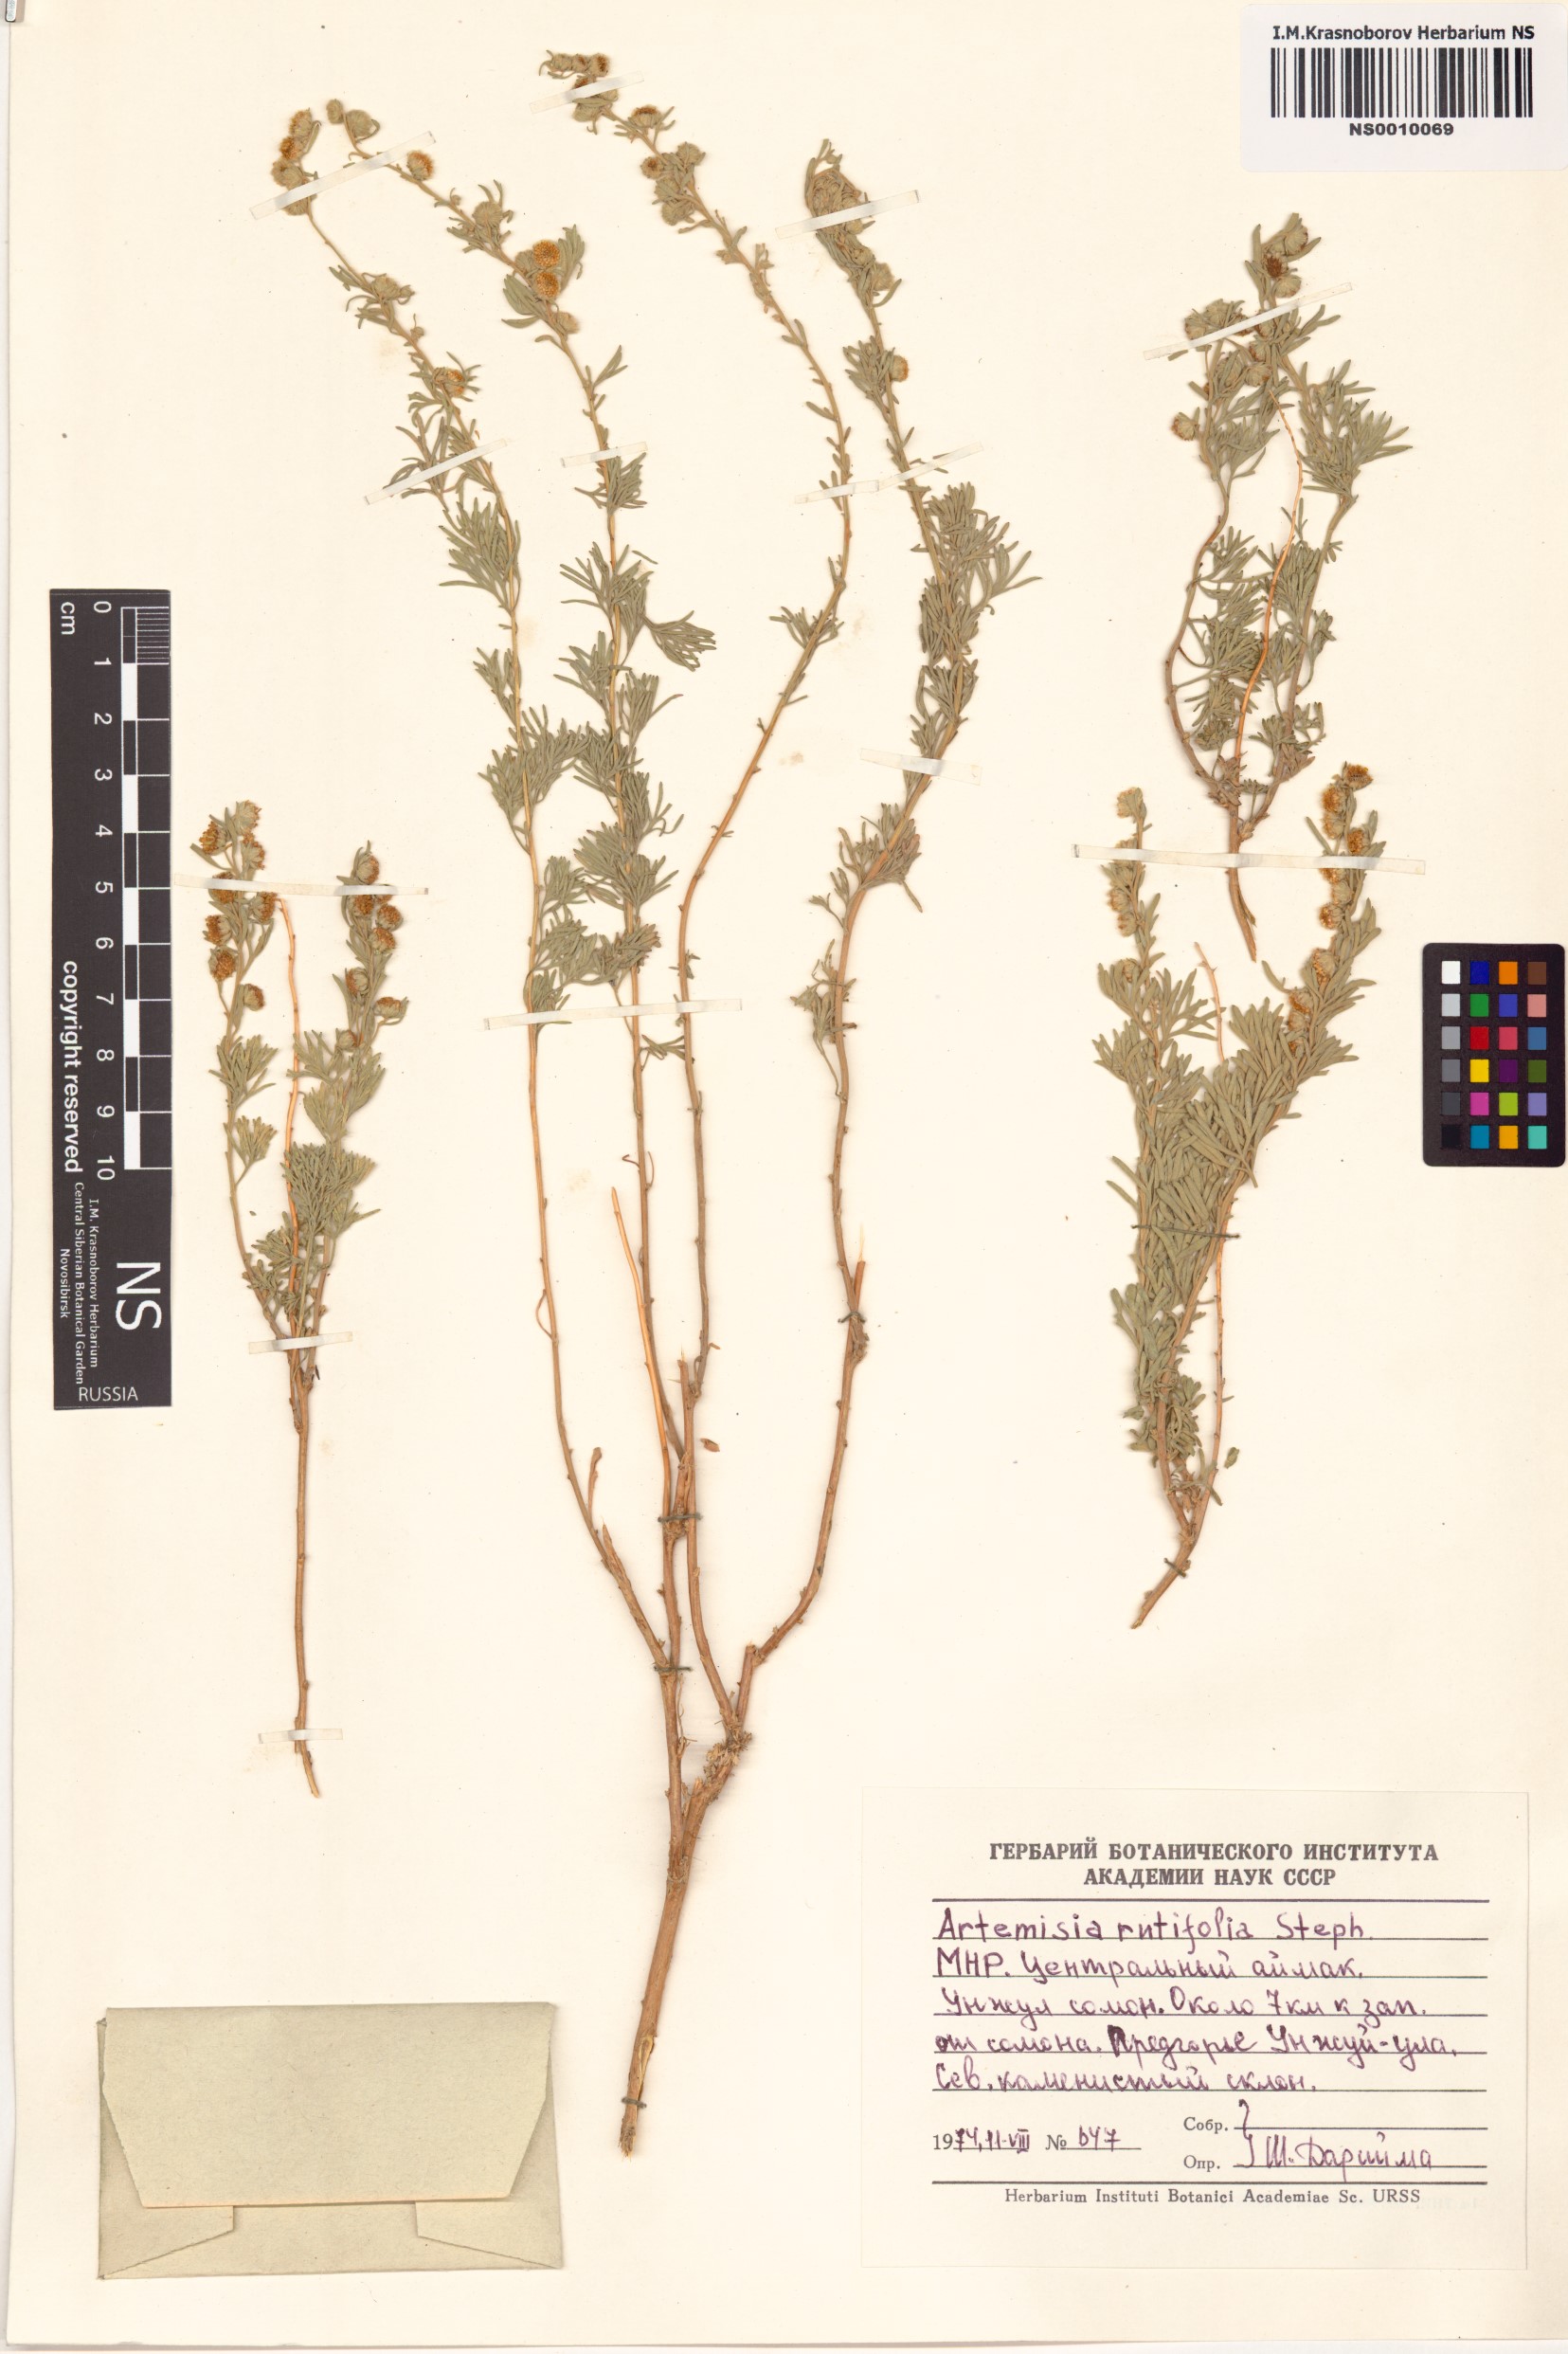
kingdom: Plantae
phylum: Tracheophyta
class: Magnoliopsida
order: Asterales
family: Asteraceae
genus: Artemisia
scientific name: Artemisia rutifolia
